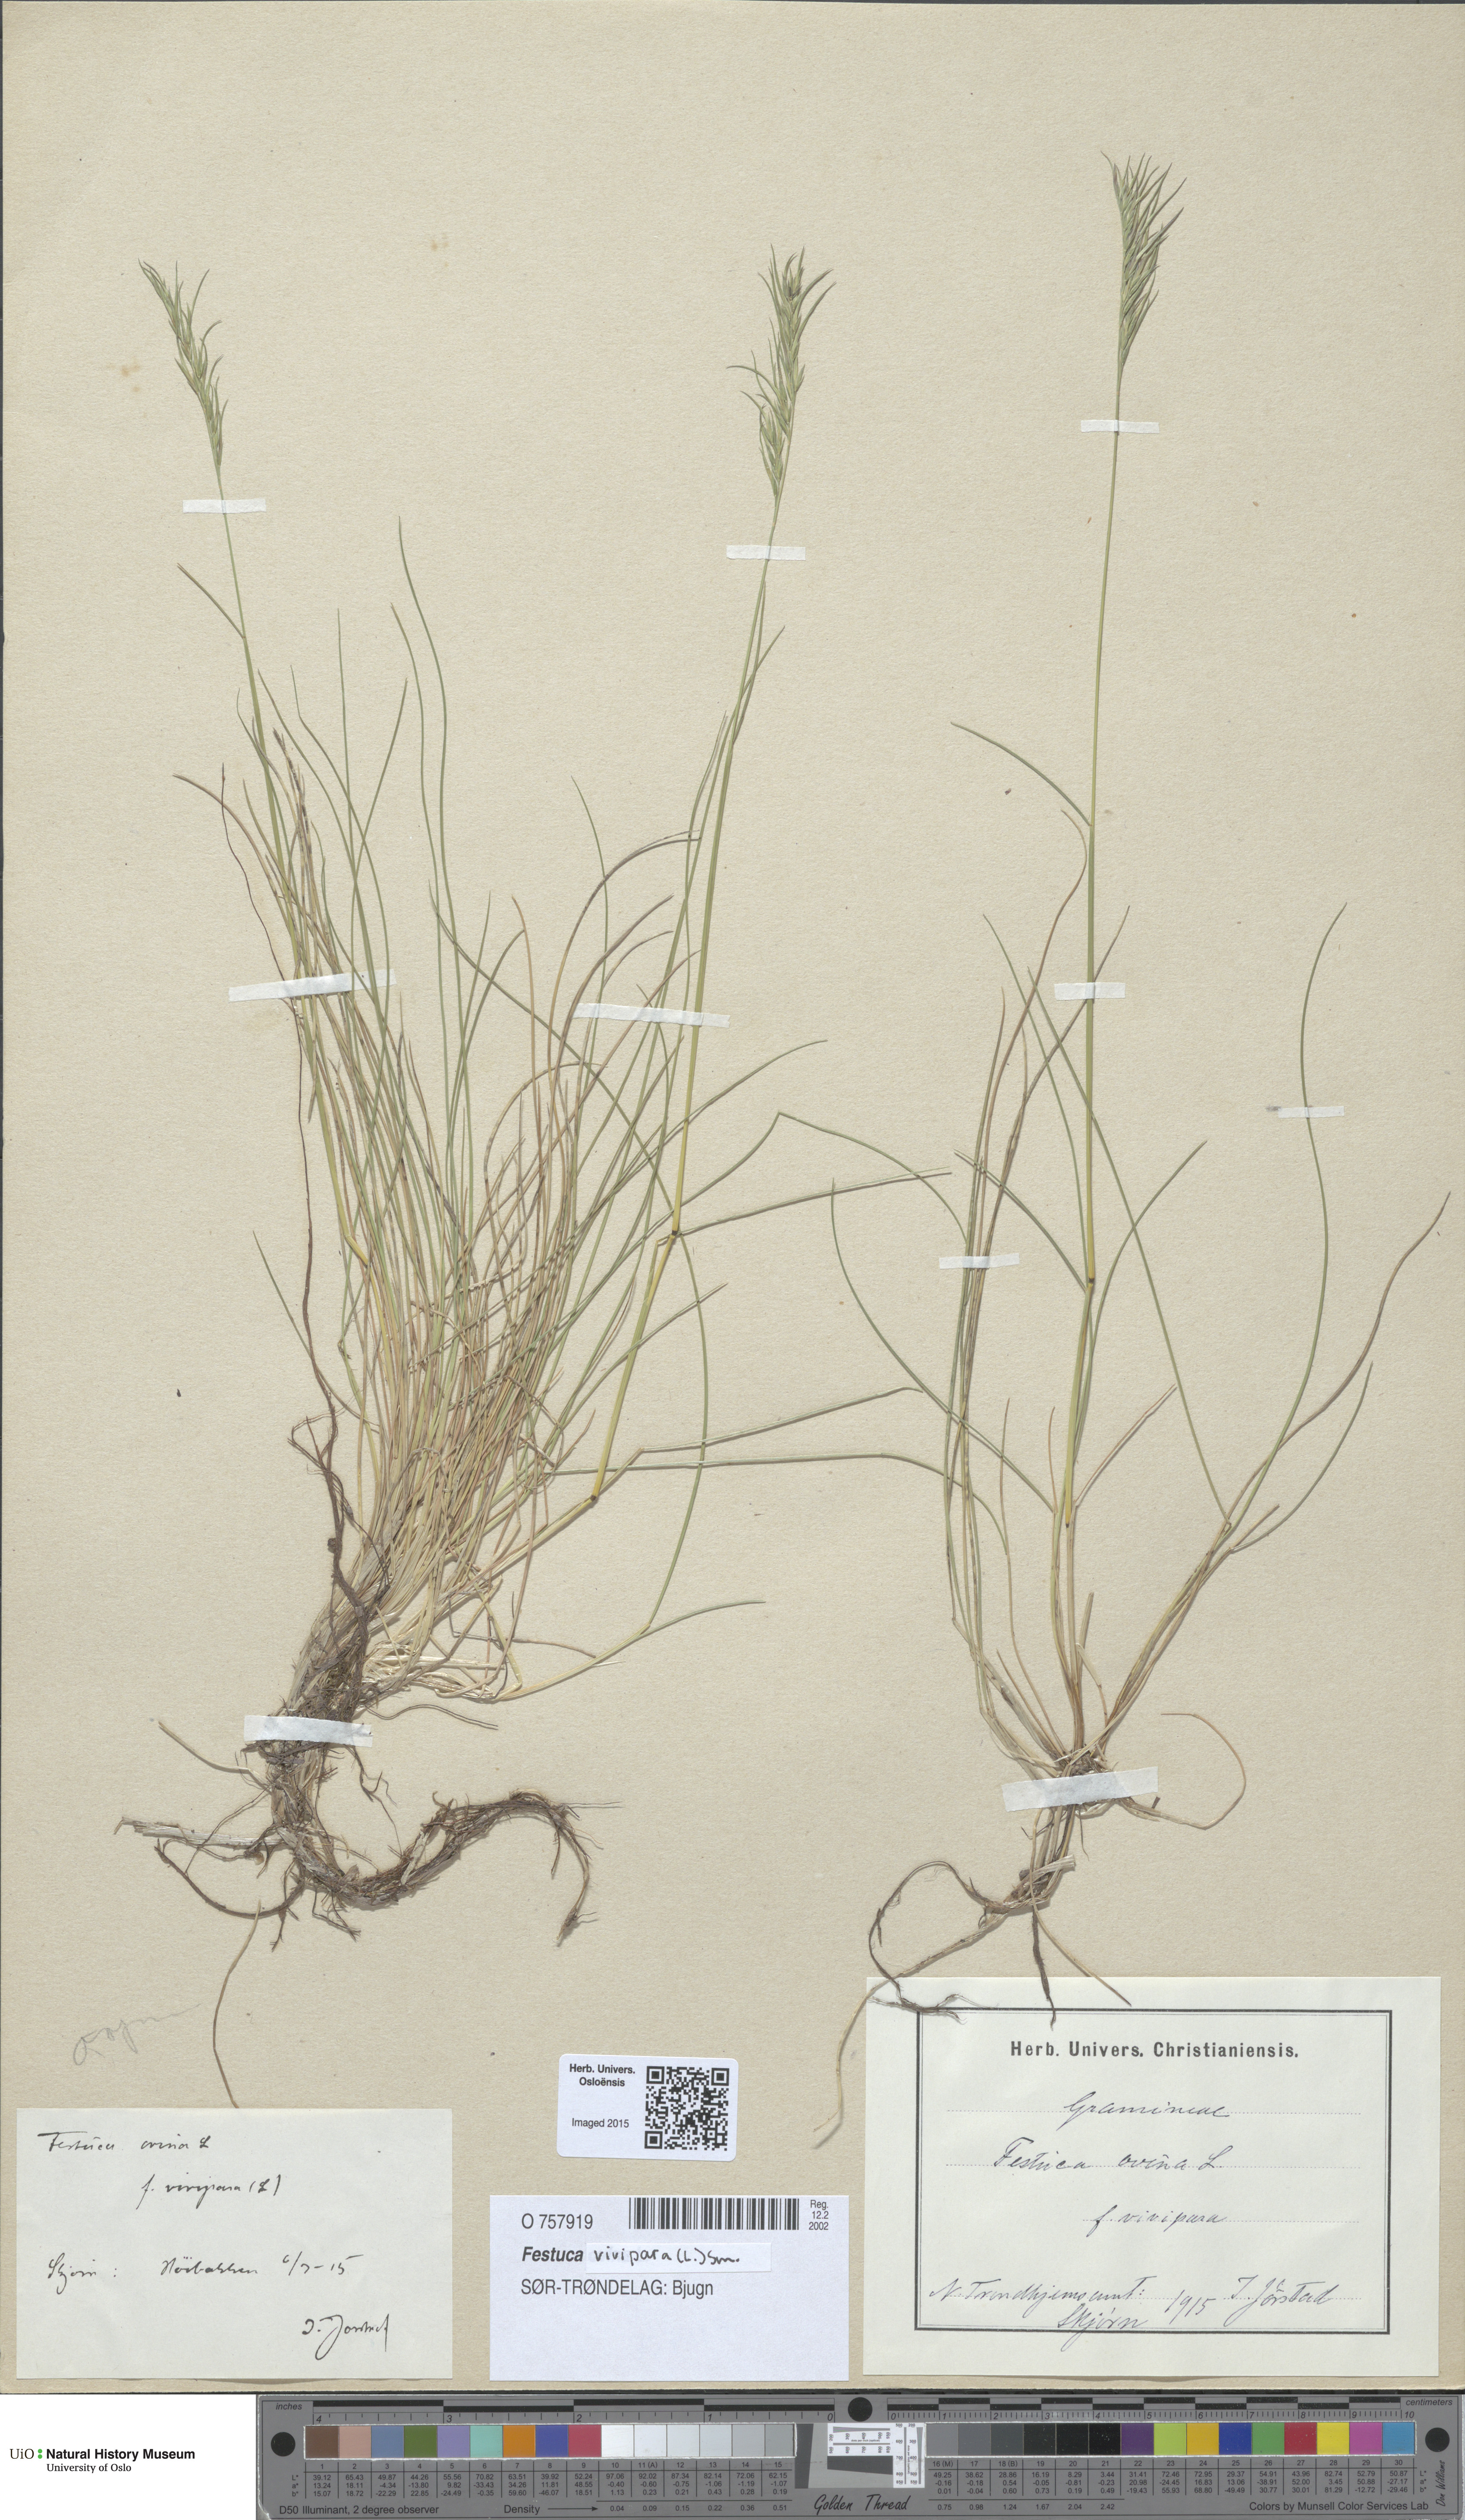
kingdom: Plantae
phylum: Tracheophyta
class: Liliopsida
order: Poales
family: Poaceae
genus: Festuca
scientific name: Festuca vivipara
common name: Viviparous sheep's-fescue
